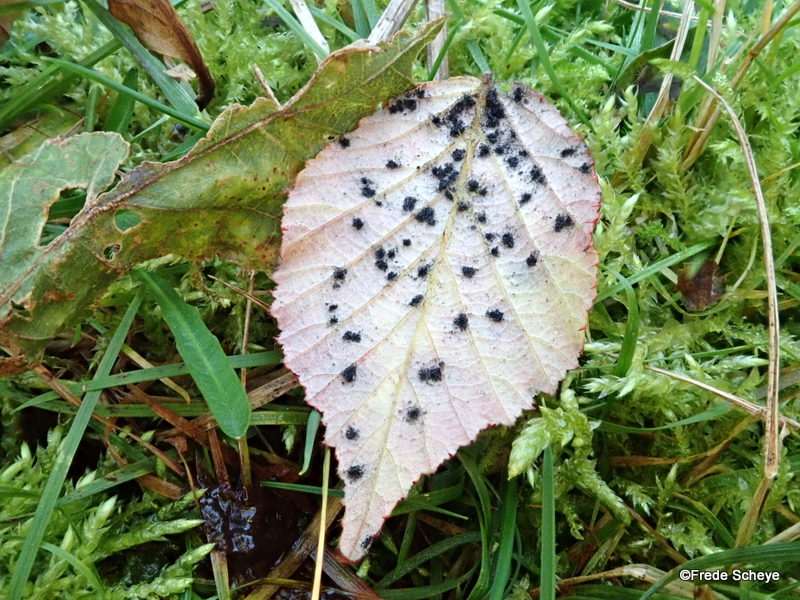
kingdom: Fungi
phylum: Basidiomycota
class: Pucciniomycetes
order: Pucciniales
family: Phragmidiaceae
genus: Phragmidium
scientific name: Phragmidium violaceum
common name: violet flercellerust
